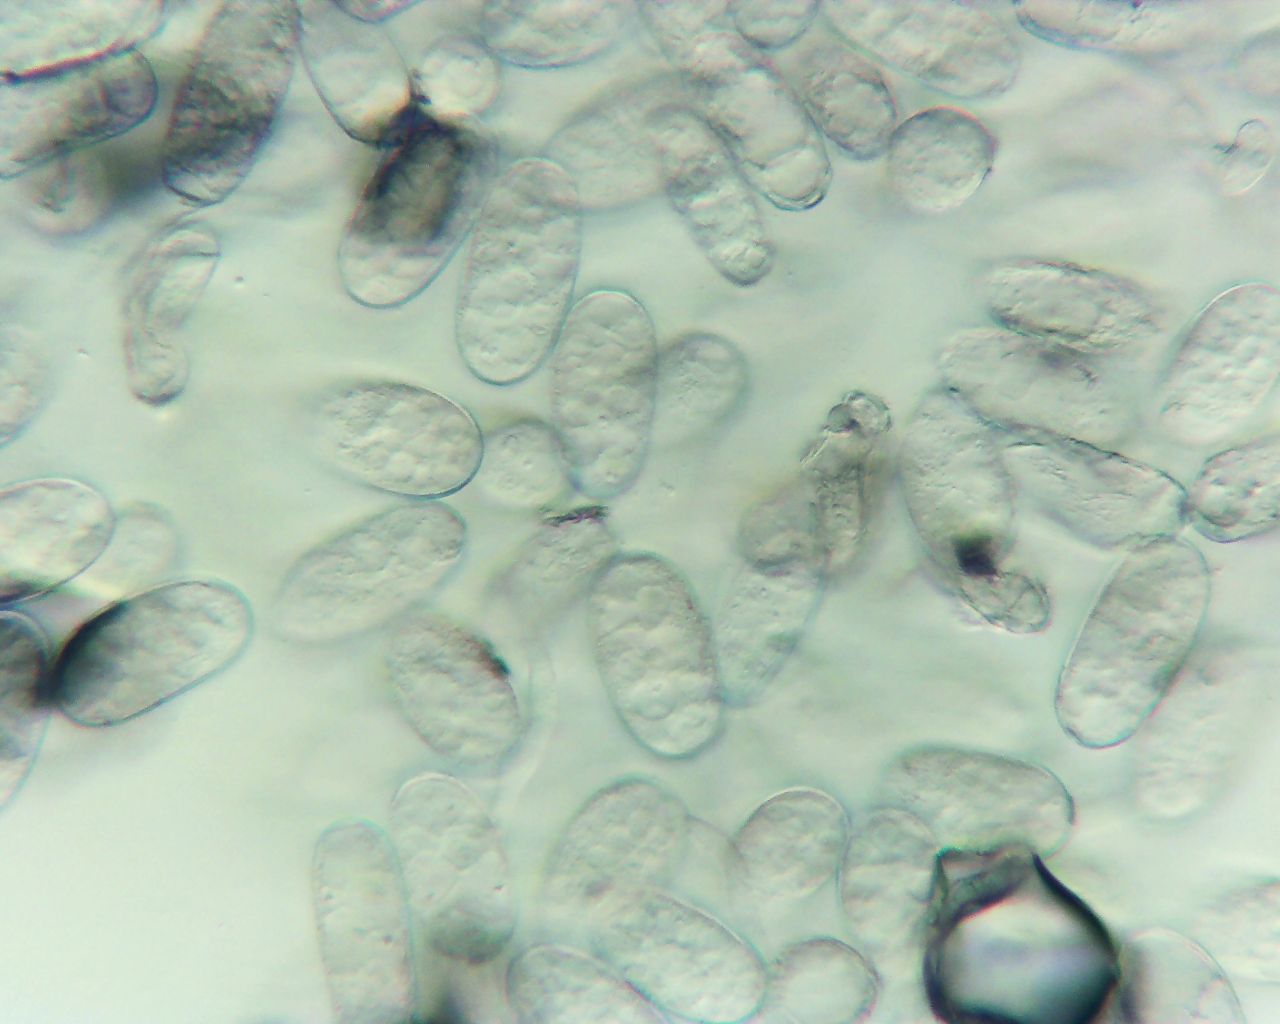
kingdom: Fungi
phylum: Ascomycota
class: Leotiomycetes
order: Helotiales
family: Erysiphaceae
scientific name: Erysiphaceae
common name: meldugfamilien
